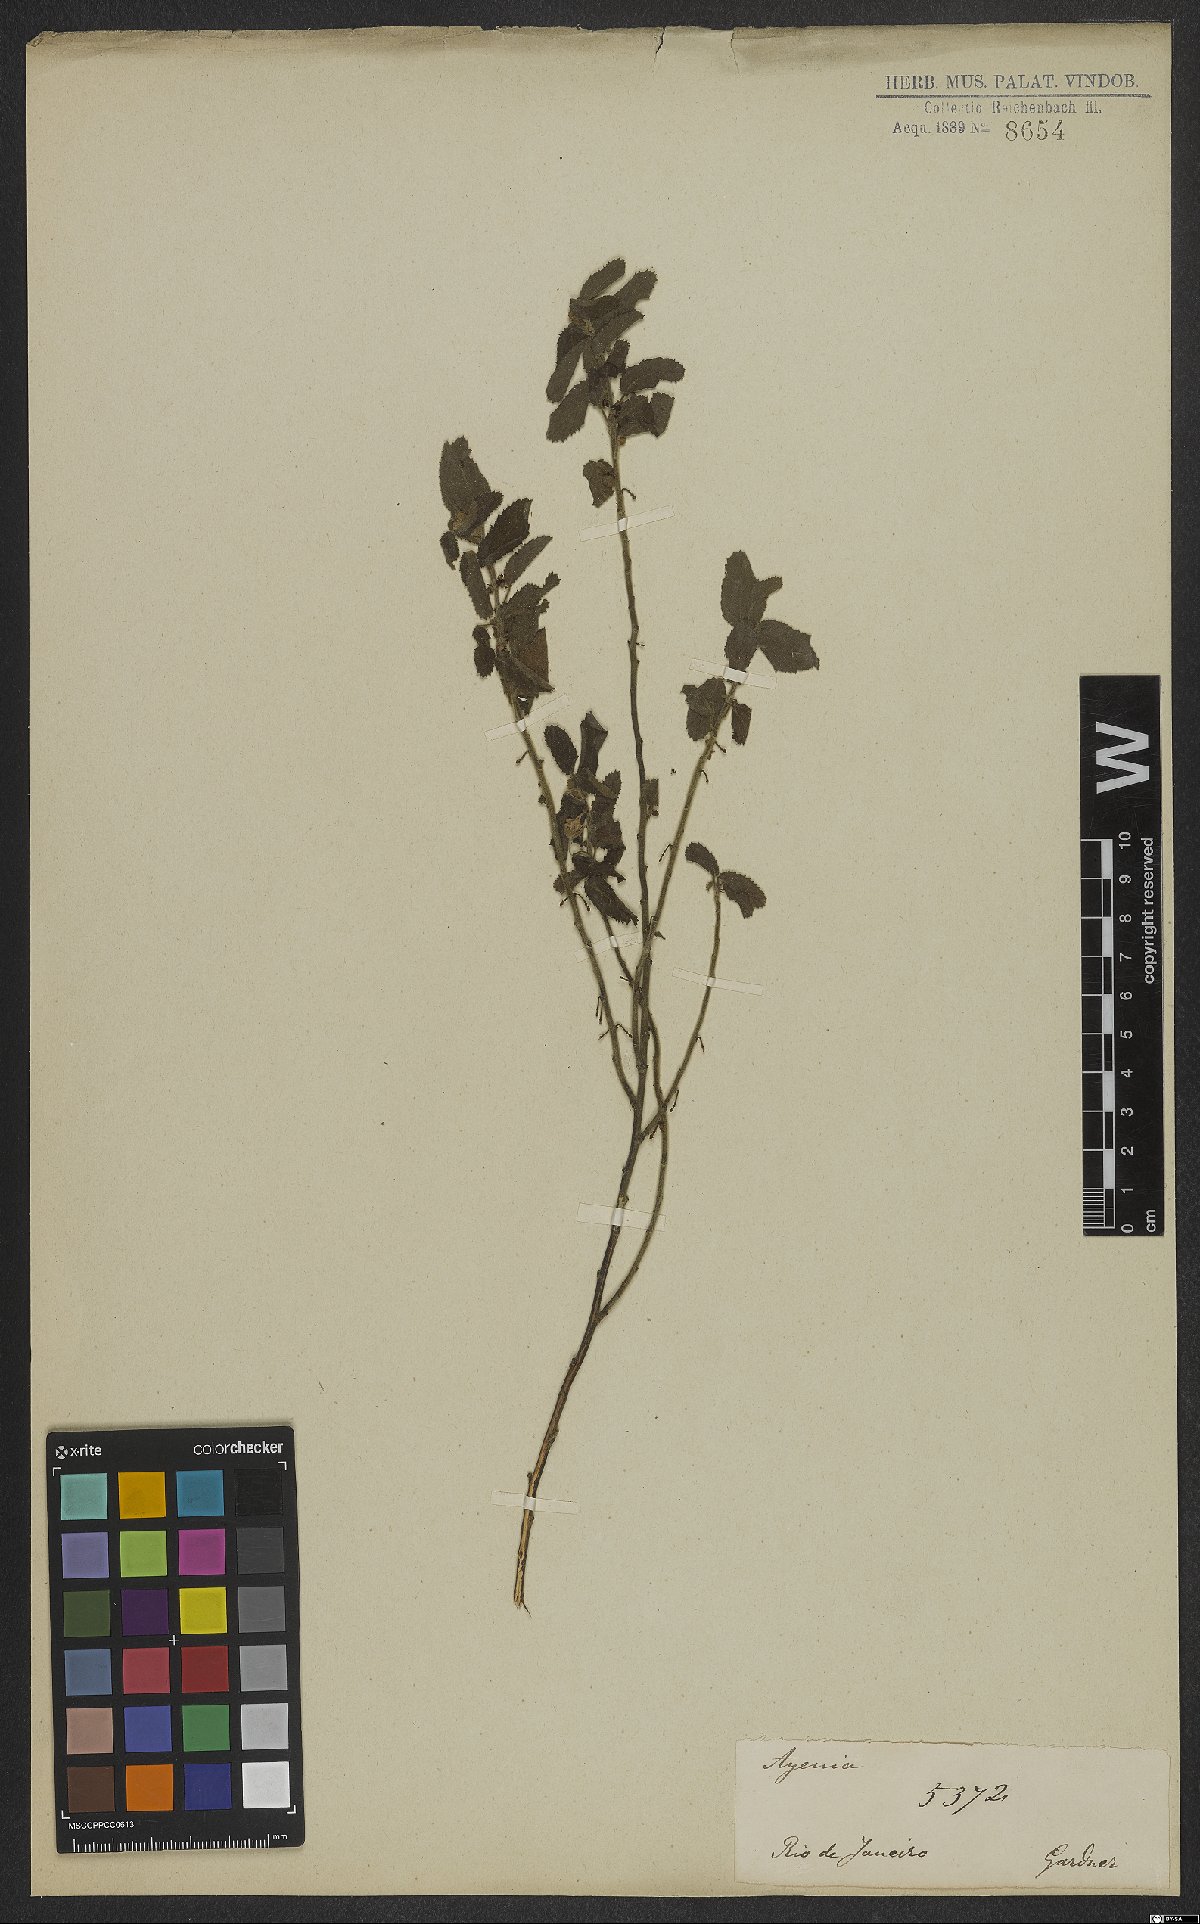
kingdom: Plantae
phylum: Tracheophyta
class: Magnoliopsida
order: Malvales
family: Malvaceae
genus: Ayenia
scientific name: Ayenia
